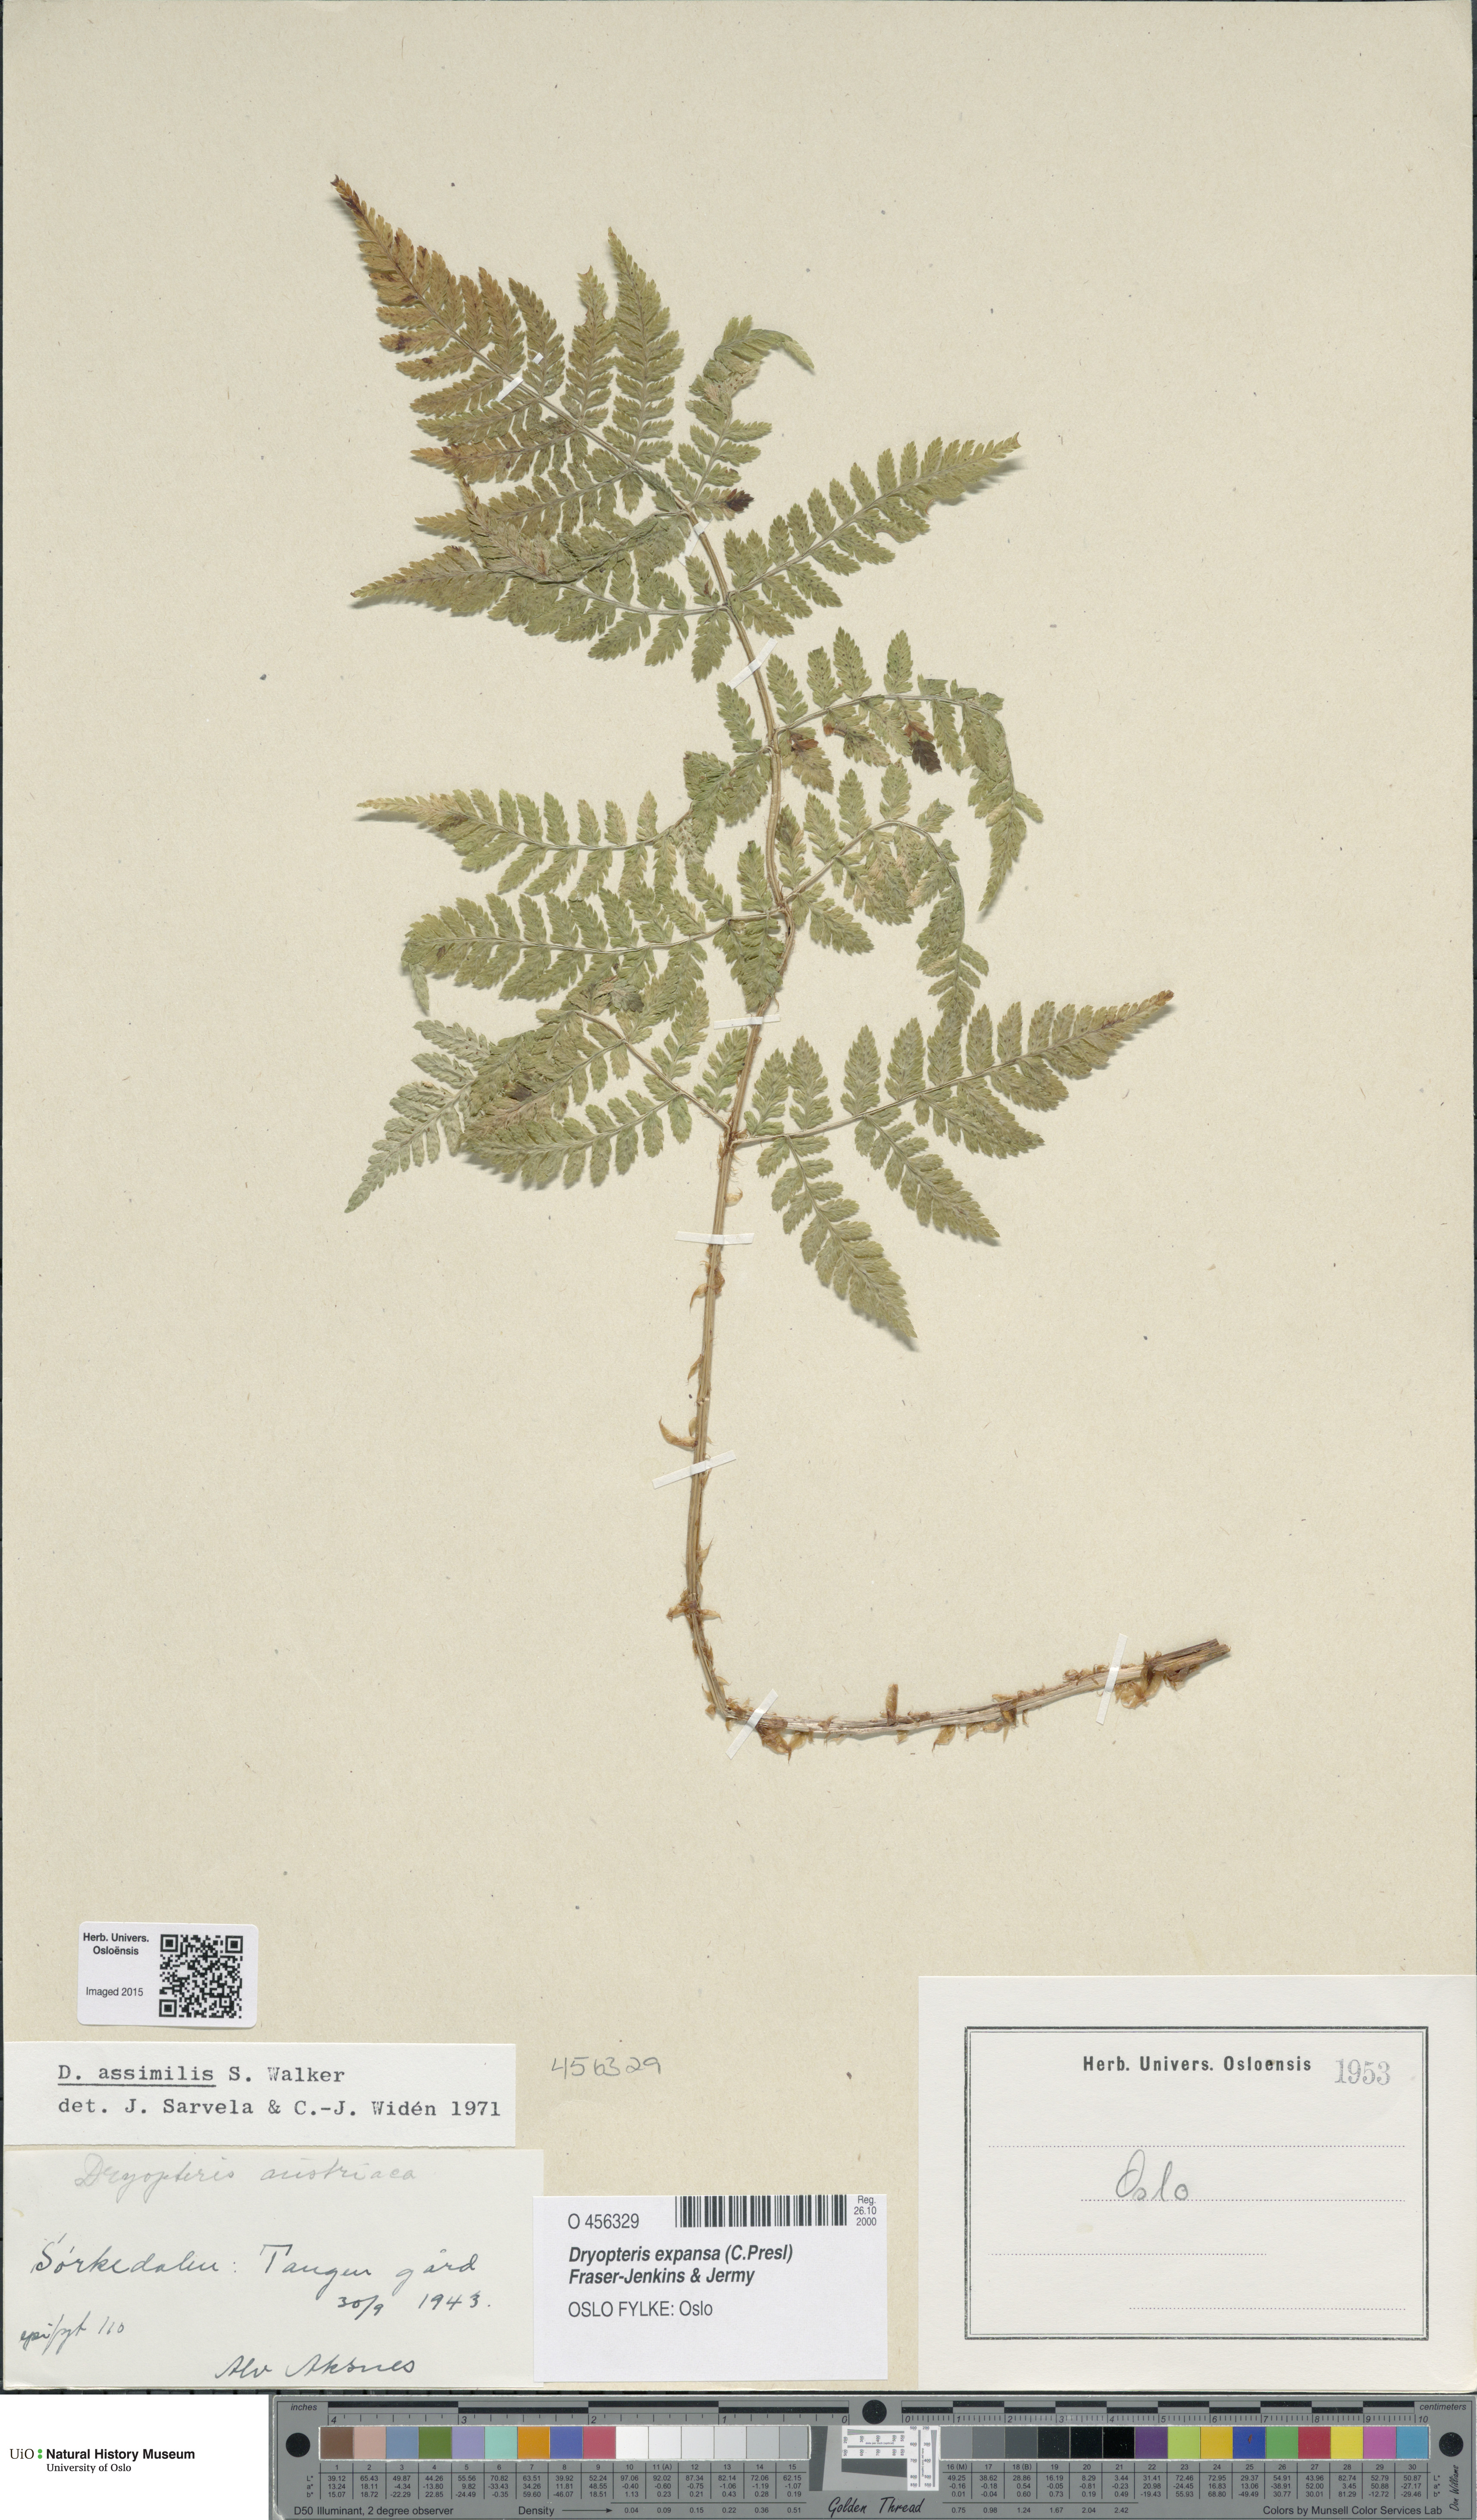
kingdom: Plantae
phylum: Tracheophyta
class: Polypodiopsida
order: Polypodiales
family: Dryopteridaceae
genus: Dryopteris
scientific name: Dryopteris expansa
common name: Northern buckler fern
